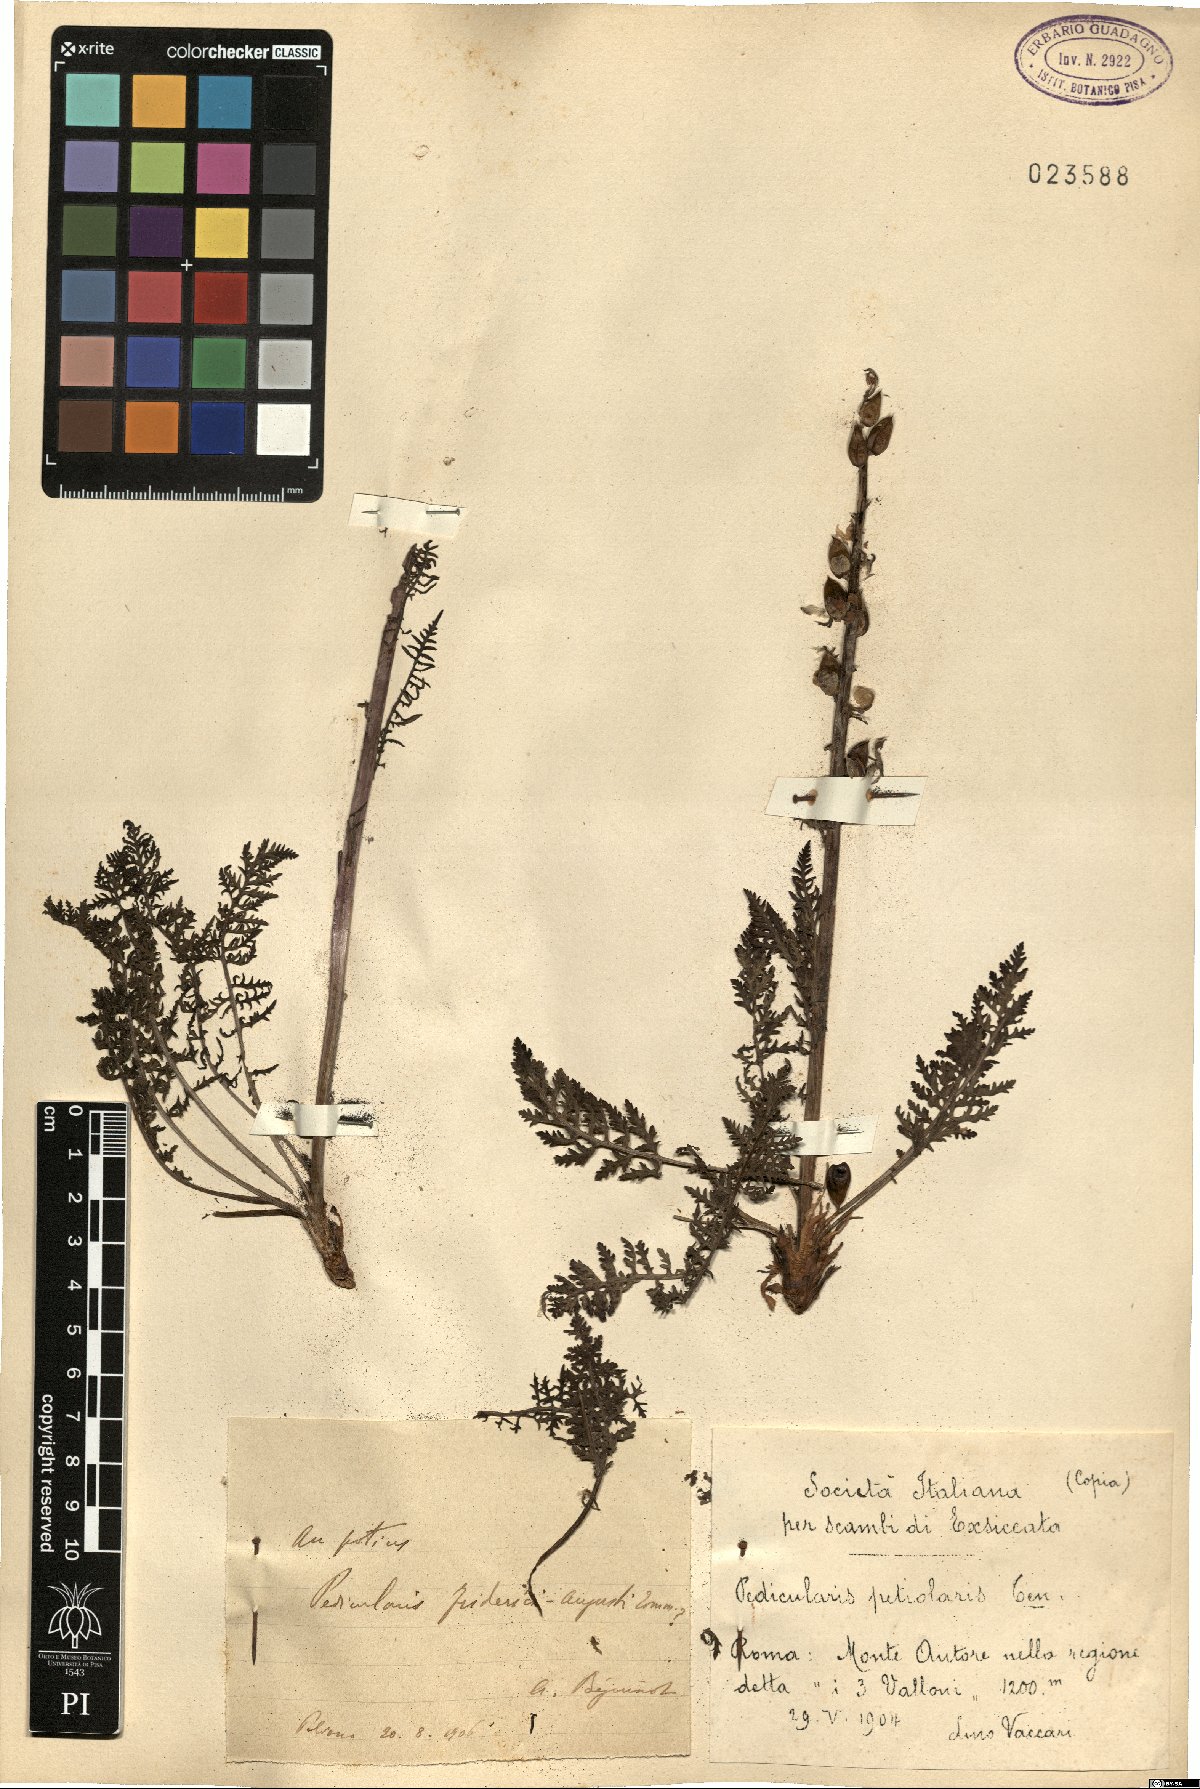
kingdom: Plantae
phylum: Tracheophyta
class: Magnoliopsida
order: Lamiales
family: Orobanchaceae
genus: Pedicularis
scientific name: Pedicularis friderici-augusti
